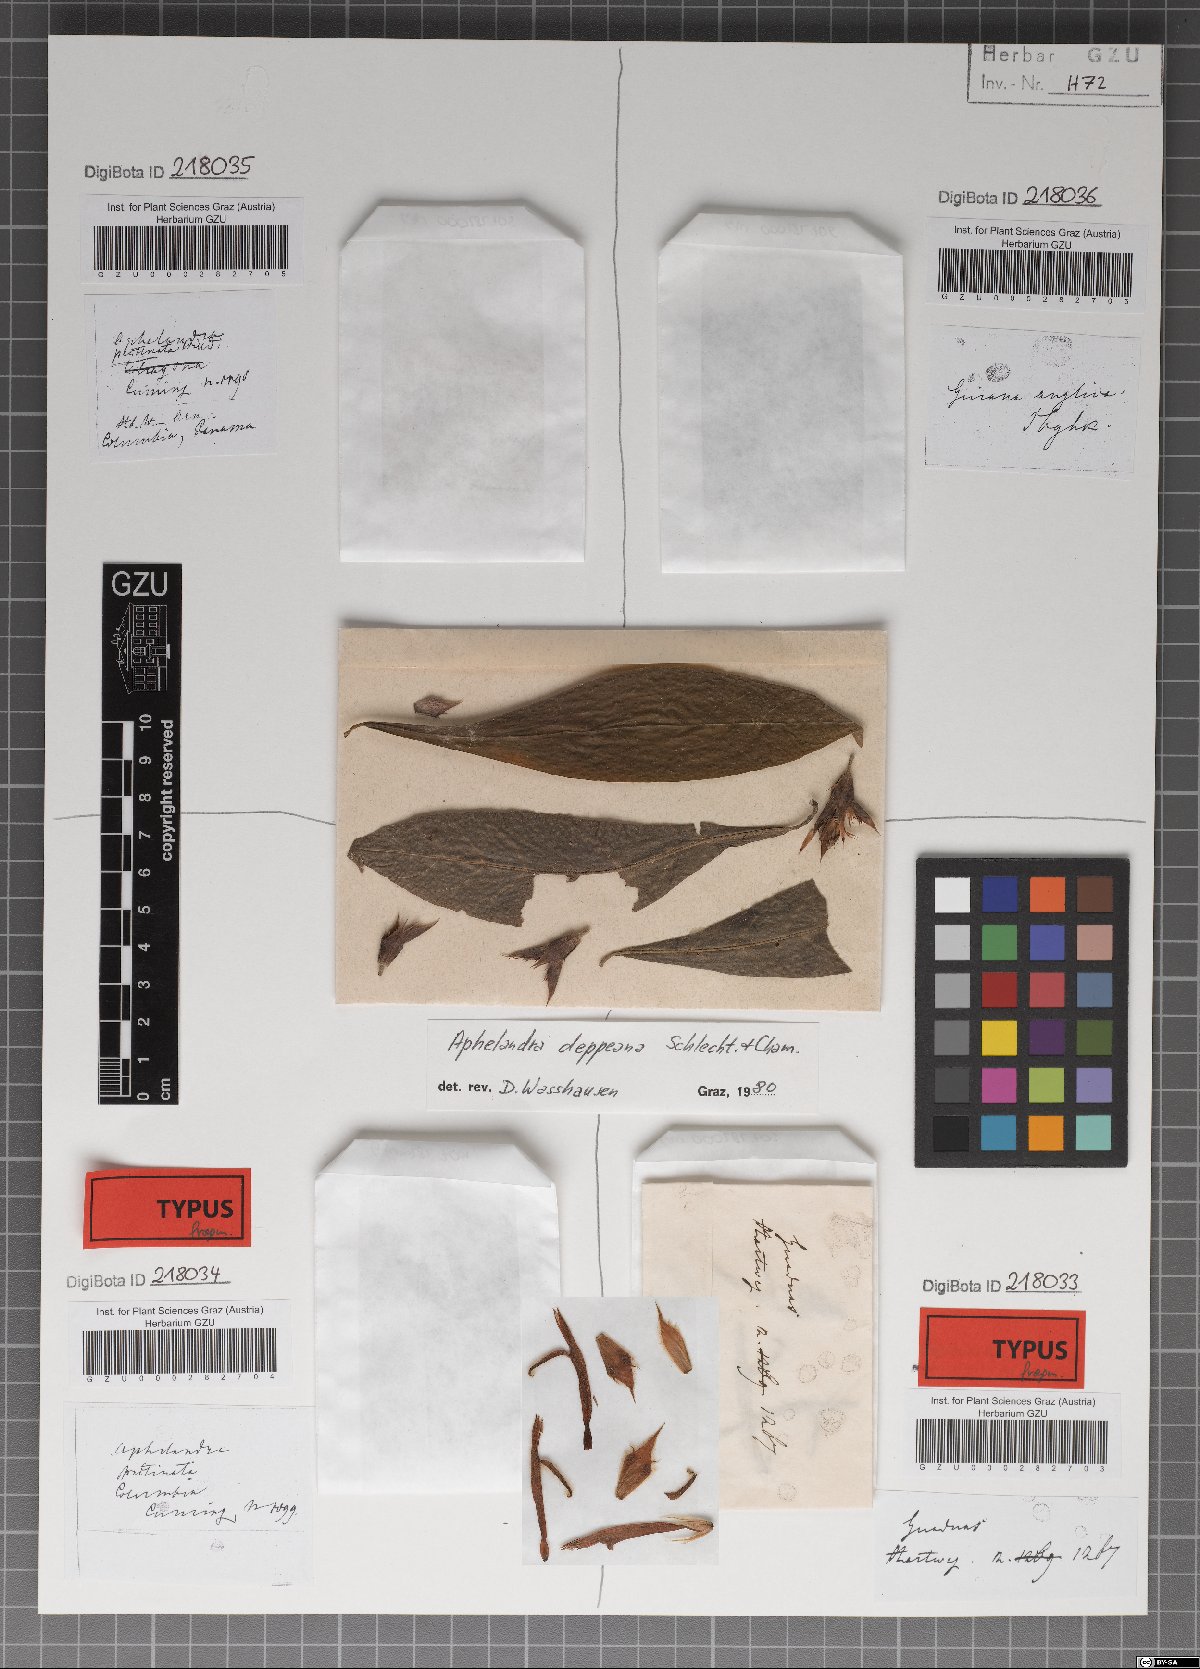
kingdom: Plantae
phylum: Tracheophyta
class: Magnoliopsida
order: Lamiales
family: Acanthaceae
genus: Aphelandra
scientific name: Aphelandra scabra
